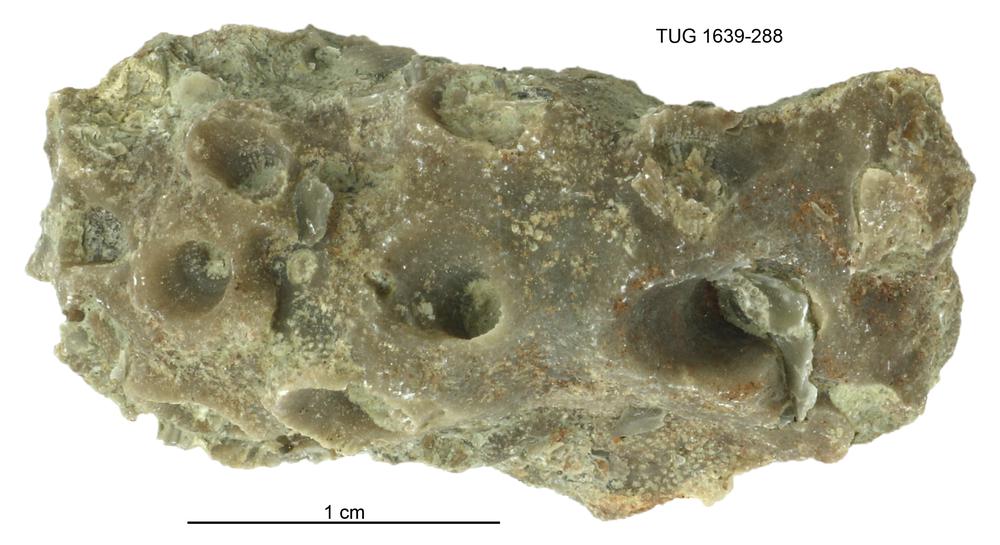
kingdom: Animalia
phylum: Bryozoa
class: Stenolaemata
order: Cystoporida
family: Fistuliporidae
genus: Fistulipora
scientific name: Fistulipora przhidolensis
